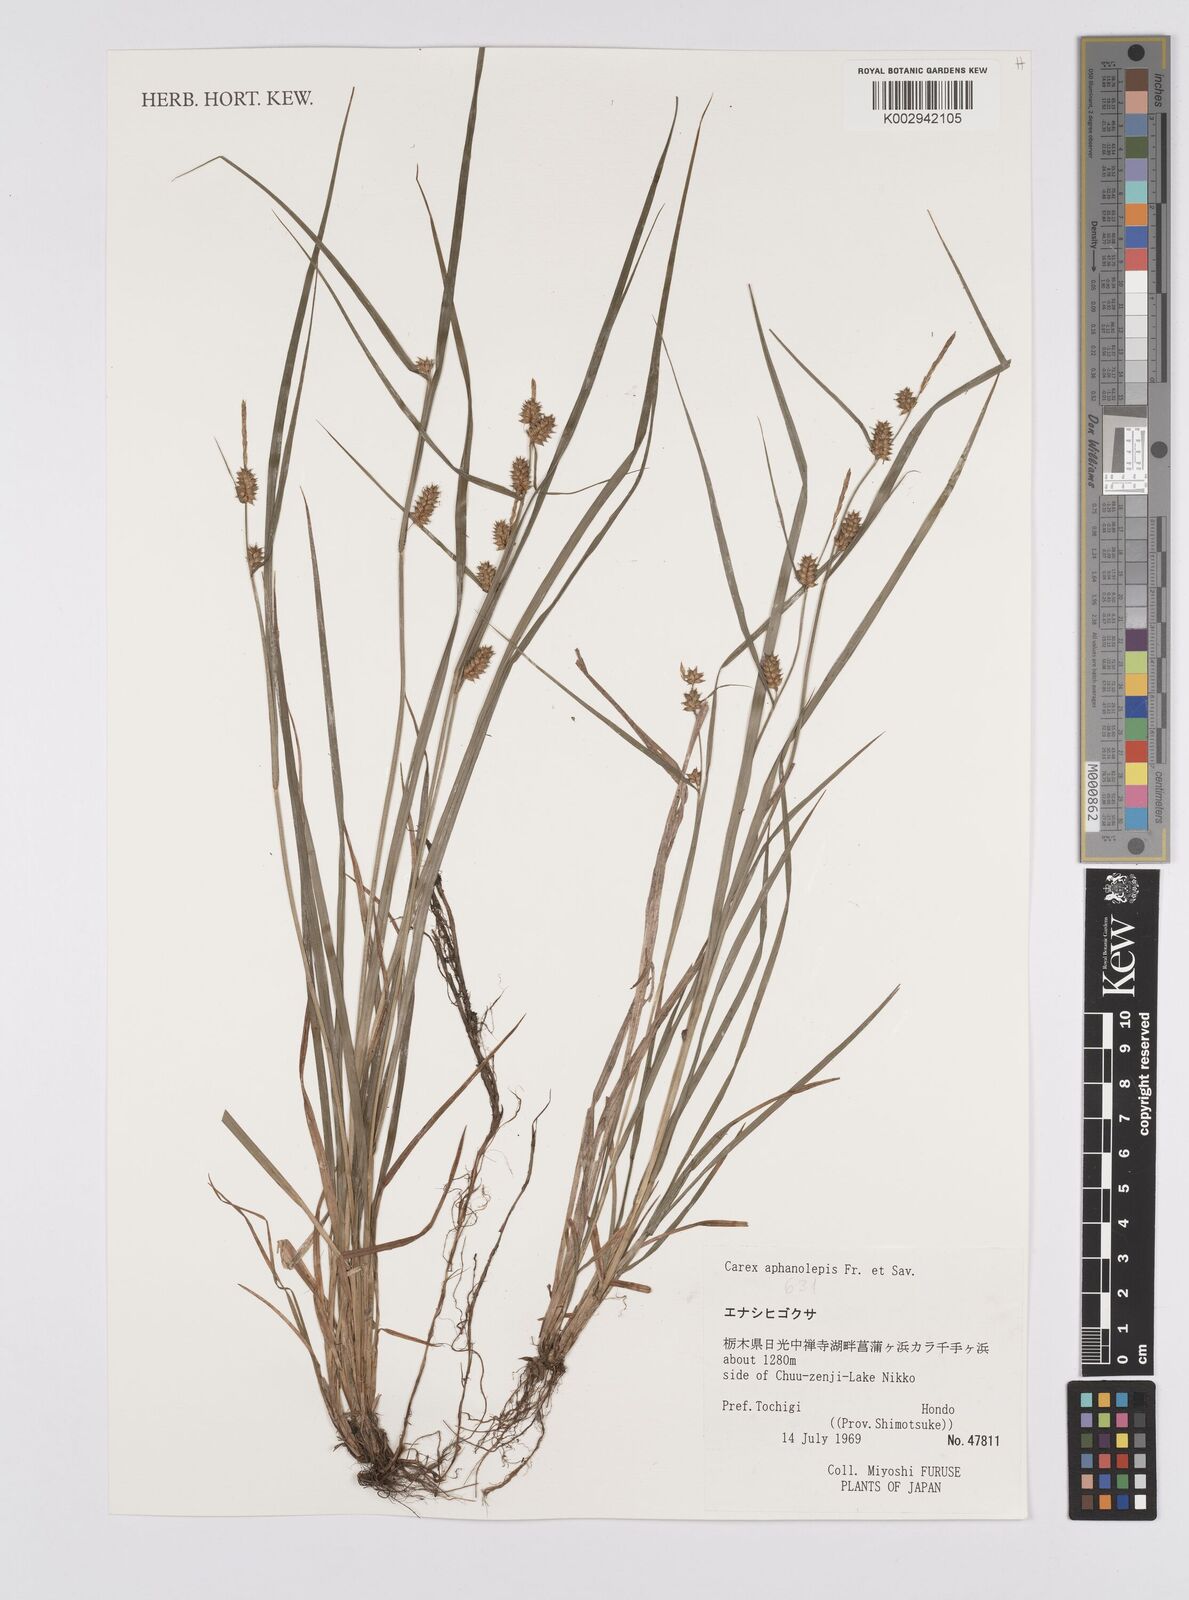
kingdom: Plantae
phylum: Tracheophyta
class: Liliopsida
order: Poales
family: Cyperaceae
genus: Carex
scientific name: Carex japonica
